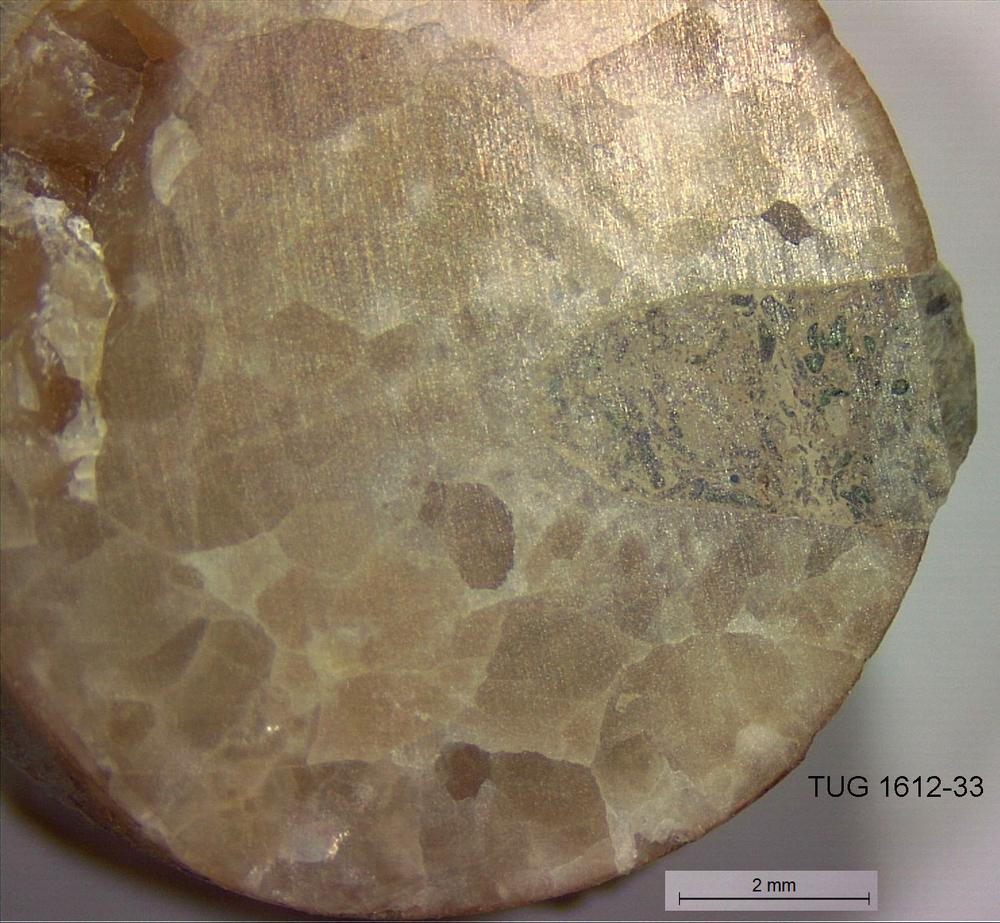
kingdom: Animalia
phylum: Mollusca
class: Cephalopoda
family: Endoceratidae
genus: Proterovaginoceras
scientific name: Proterovaginoceras Endoceras incognitum
